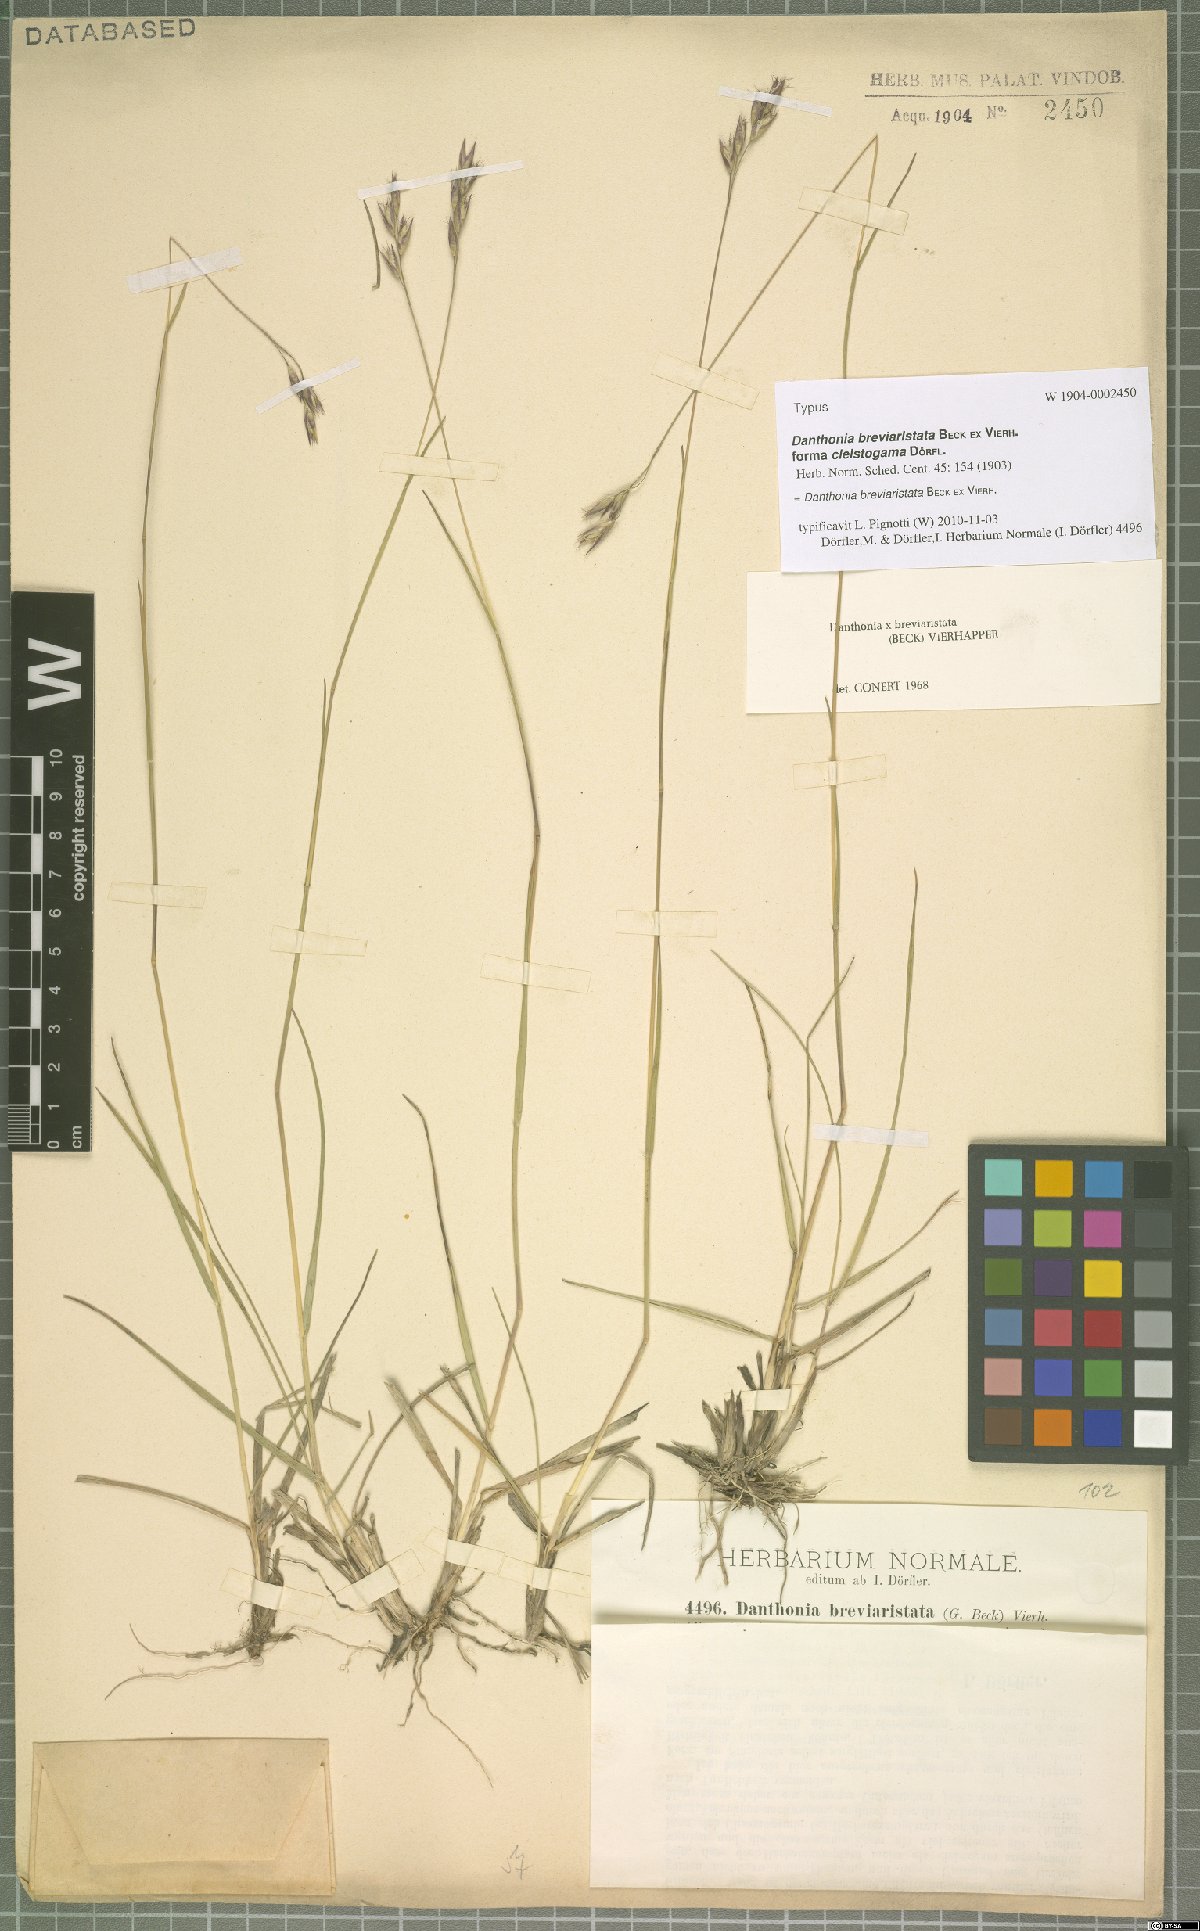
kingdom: Plantae
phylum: Tracheophyta
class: Liliopsida
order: Poales
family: Poaceae
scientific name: Poaceae
